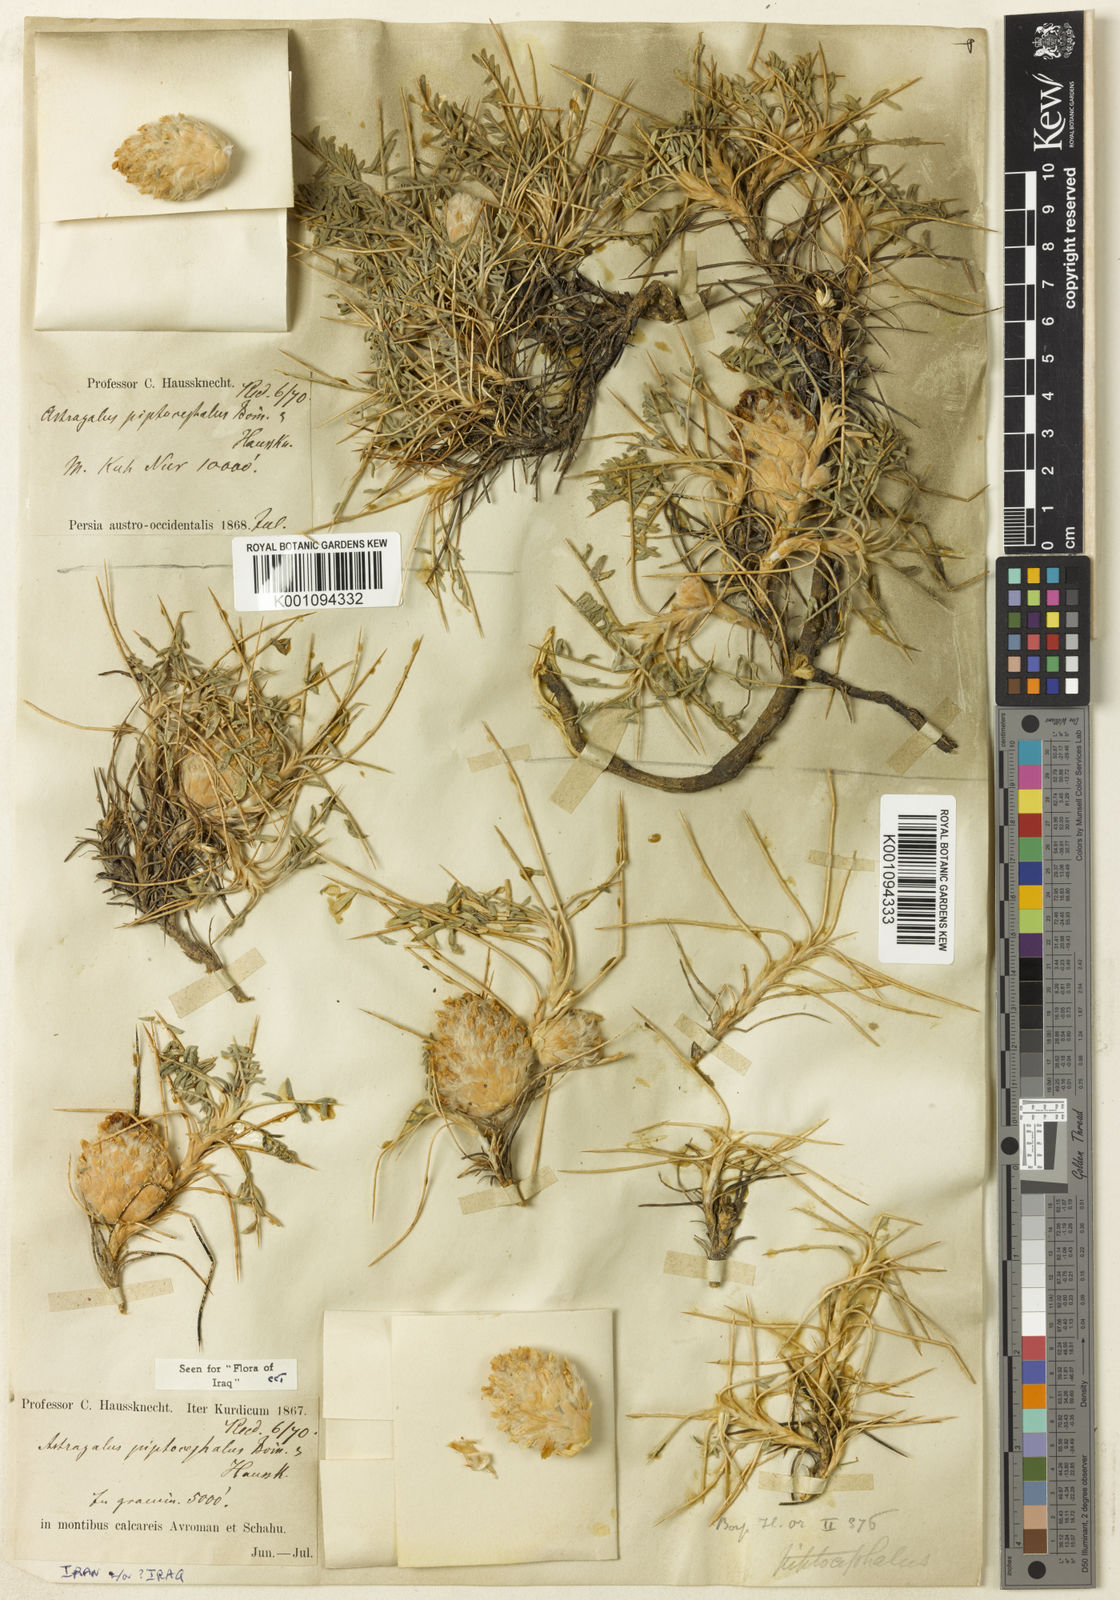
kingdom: Plantae
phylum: Tracheophyta
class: Magnoliopsida
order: Fabales
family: Fabaceae
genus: Astragalus
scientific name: Astragalus
